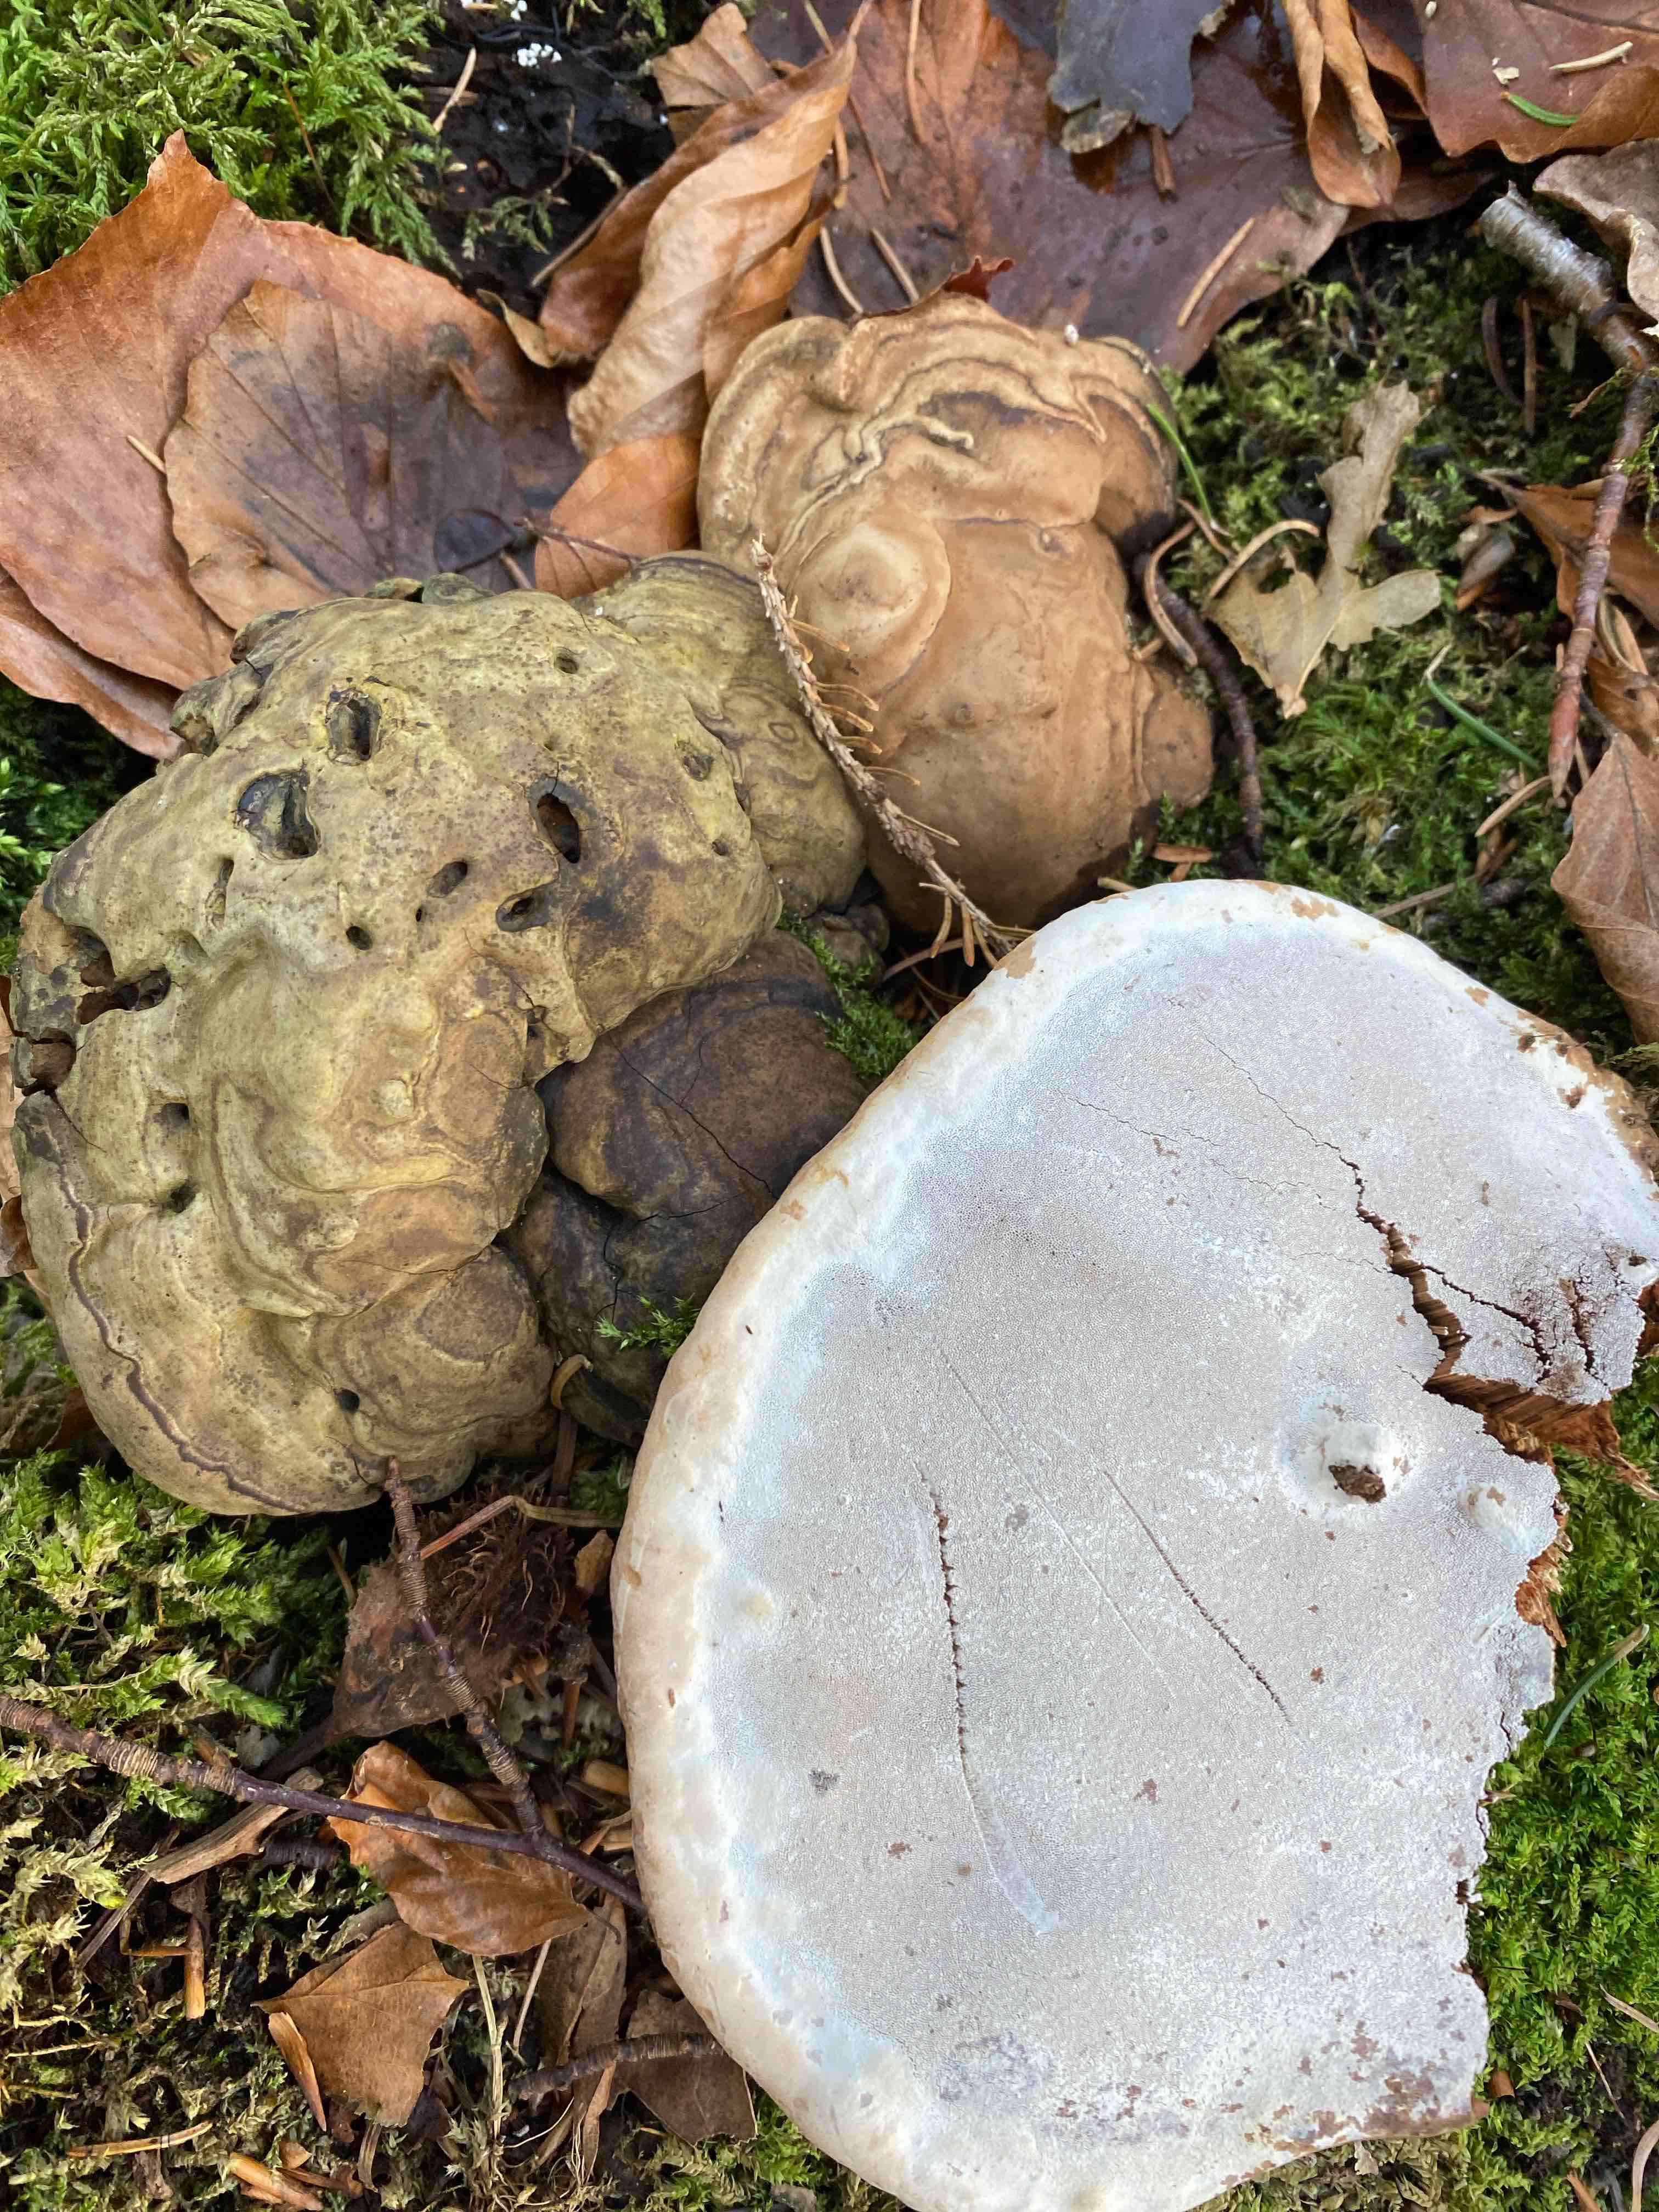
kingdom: Fungi
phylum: Basidiomycota
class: Agaricomycetes
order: Polyporales
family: Polyporaceae
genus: Ganoderma
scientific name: Ganoderma applanatum
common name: flad lakporesvamp
